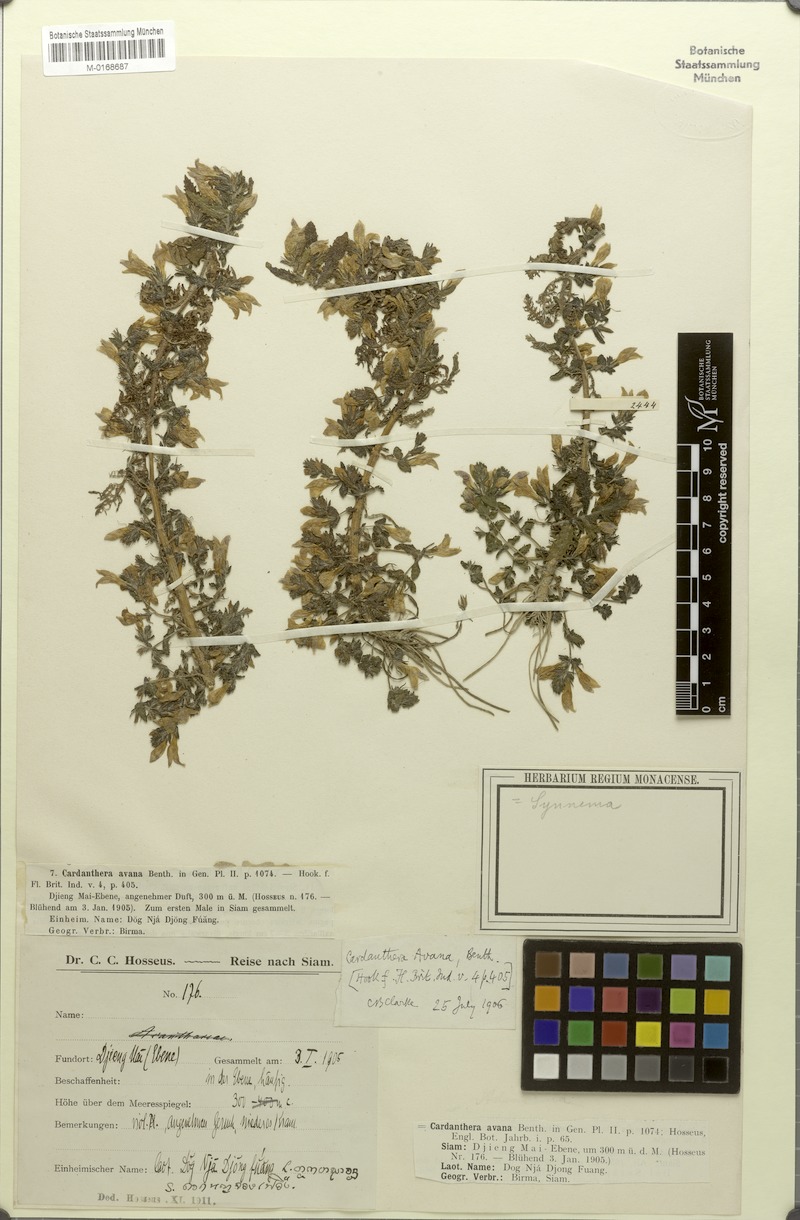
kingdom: Plantae
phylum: Tracheophyta
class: Magnoliopsida
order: Lamiales
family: Acanthaceae
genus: Hygrophila
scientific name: Hygrophila biplicata
